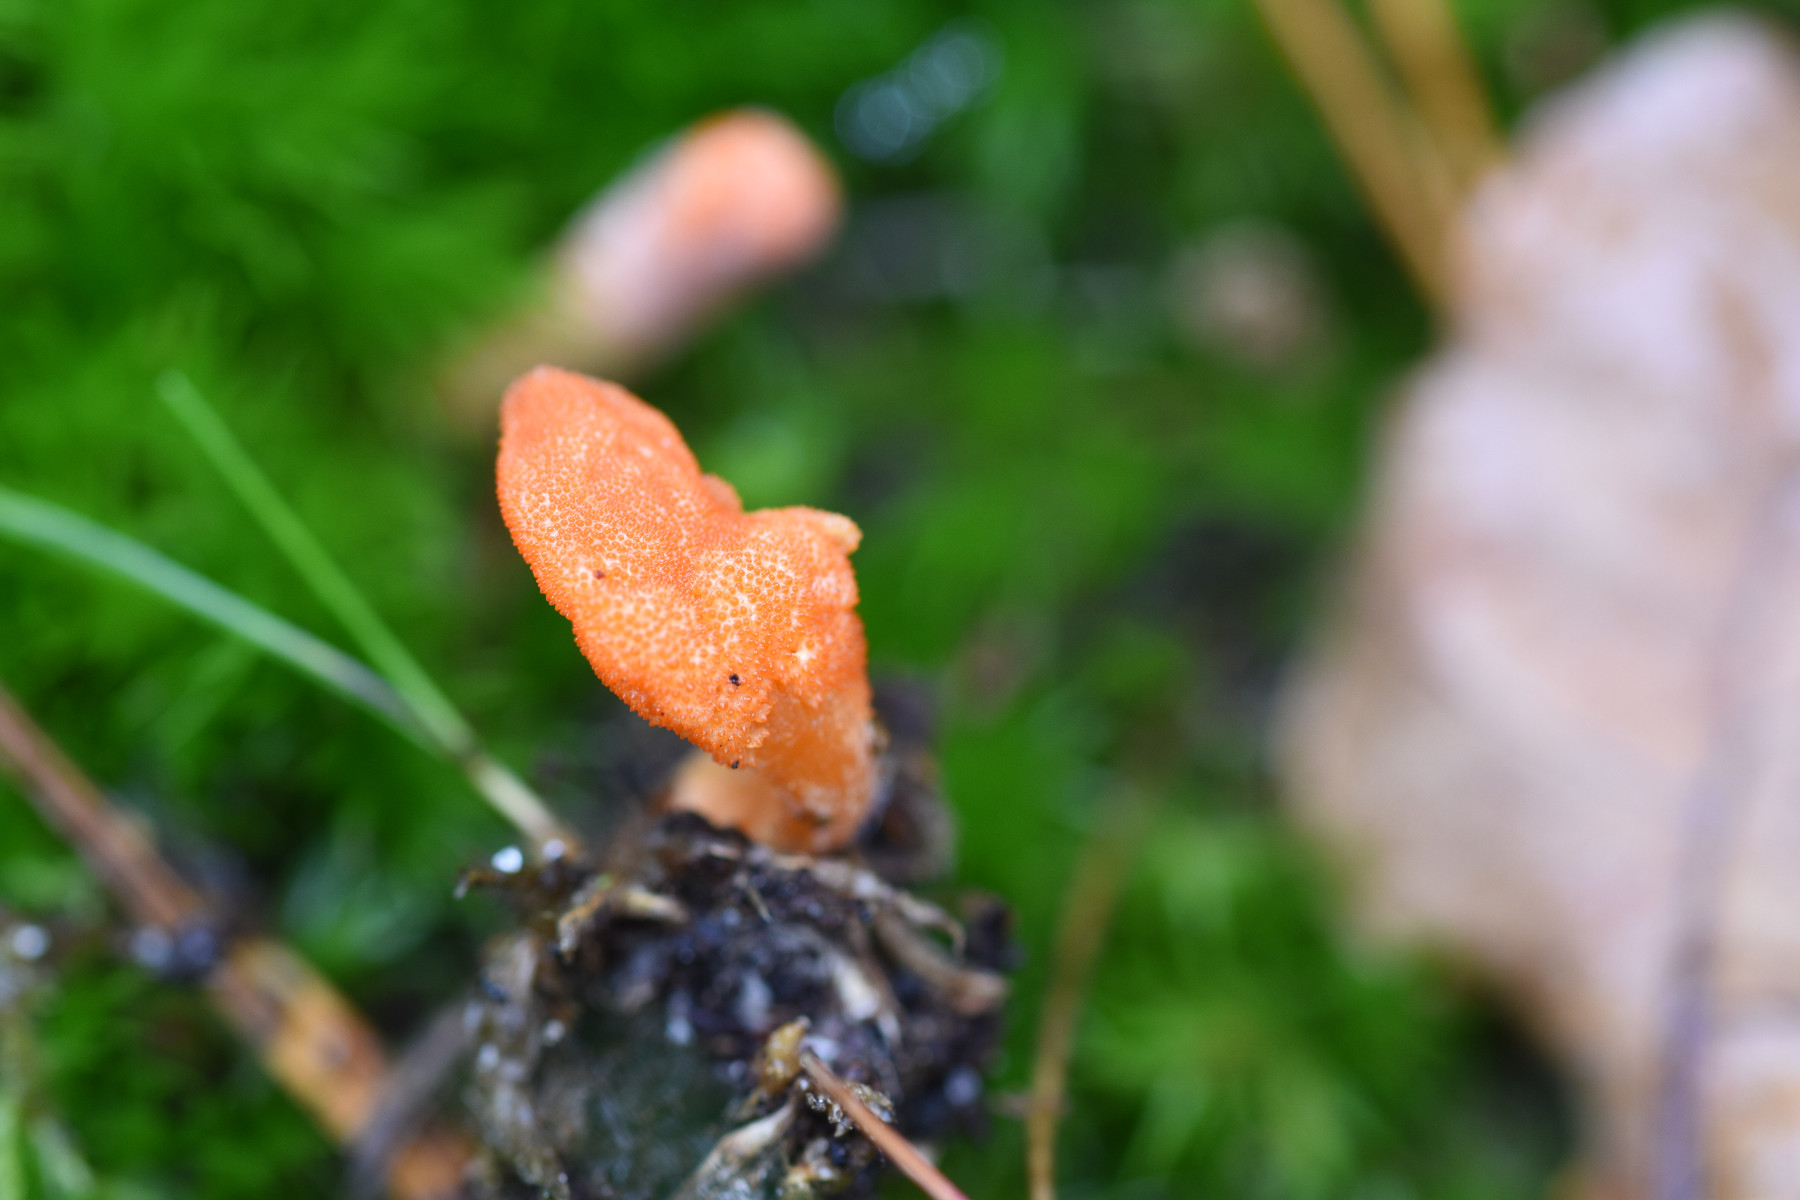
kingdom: Fungi
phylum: Ascomycota
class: Sordariomycetes
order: Hypocreales
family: Cordycipitaceae
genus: Cordyceps
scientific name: Cordyceps militaris
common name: puppe-snyltekølle
